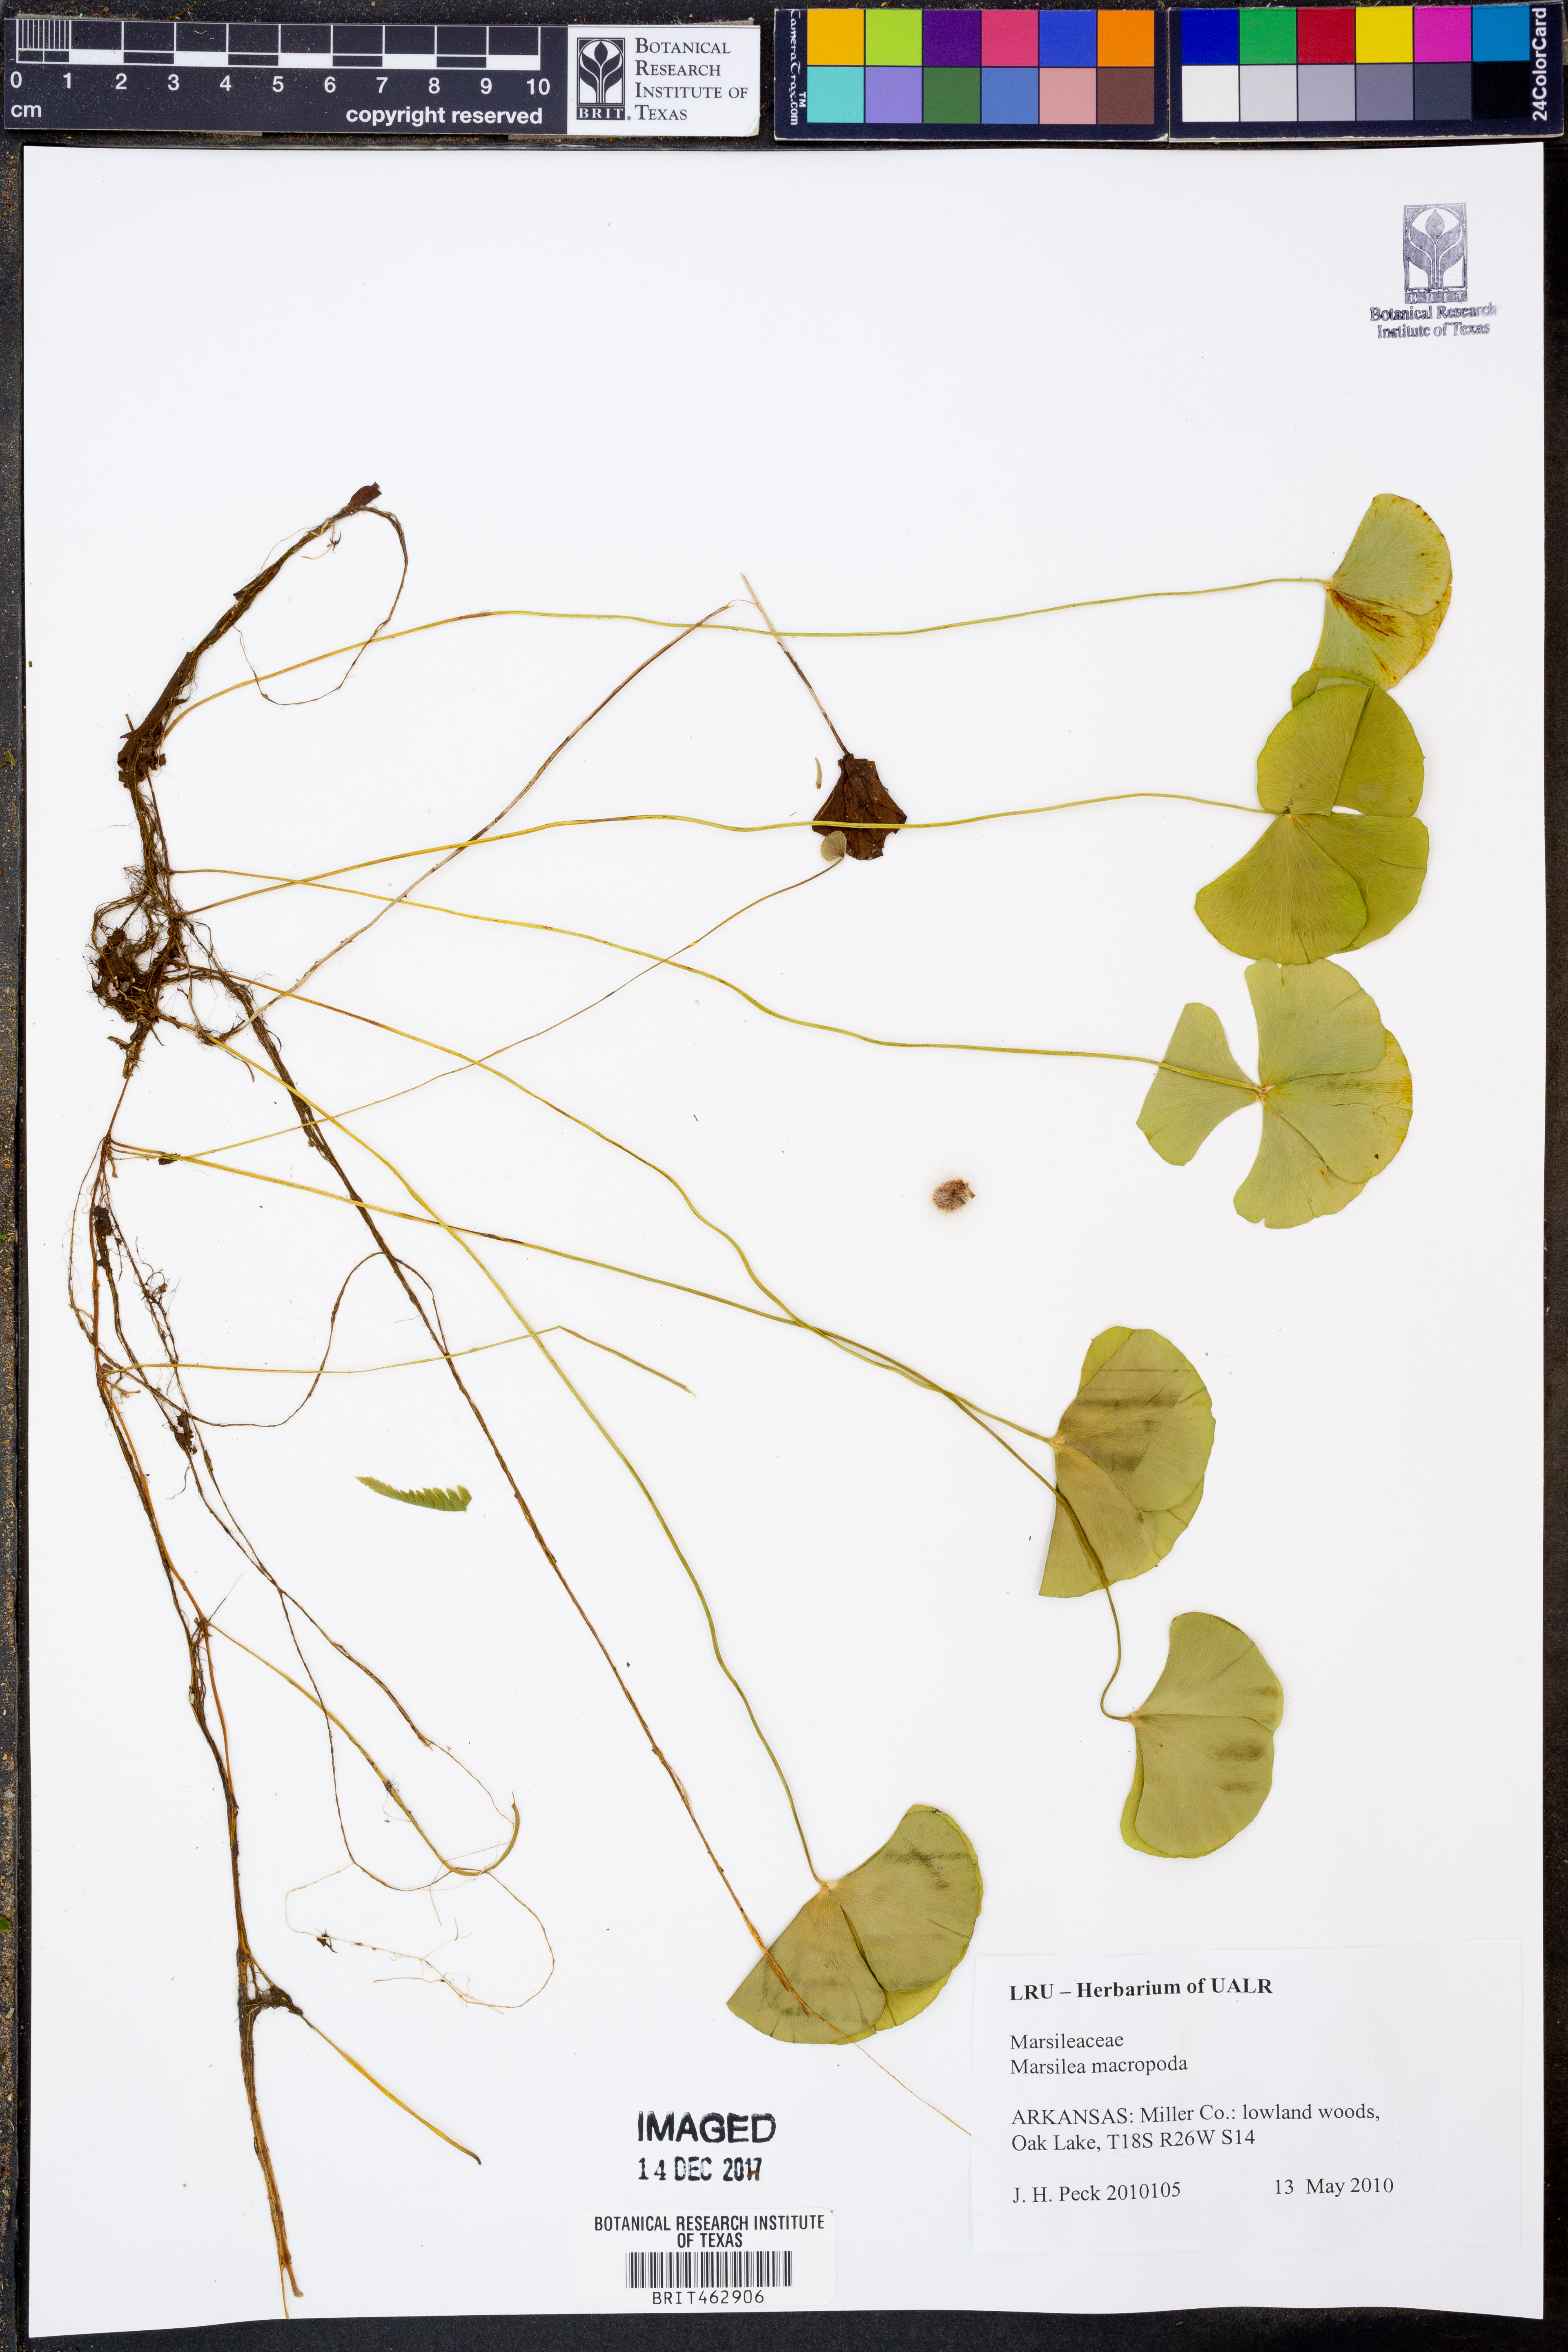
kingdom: Plantae
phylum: Tracheophyta
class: Polypodiopsida
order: Salviniales
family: Marsileaceae
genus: Marsilea
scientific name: Marsilea macropoda
